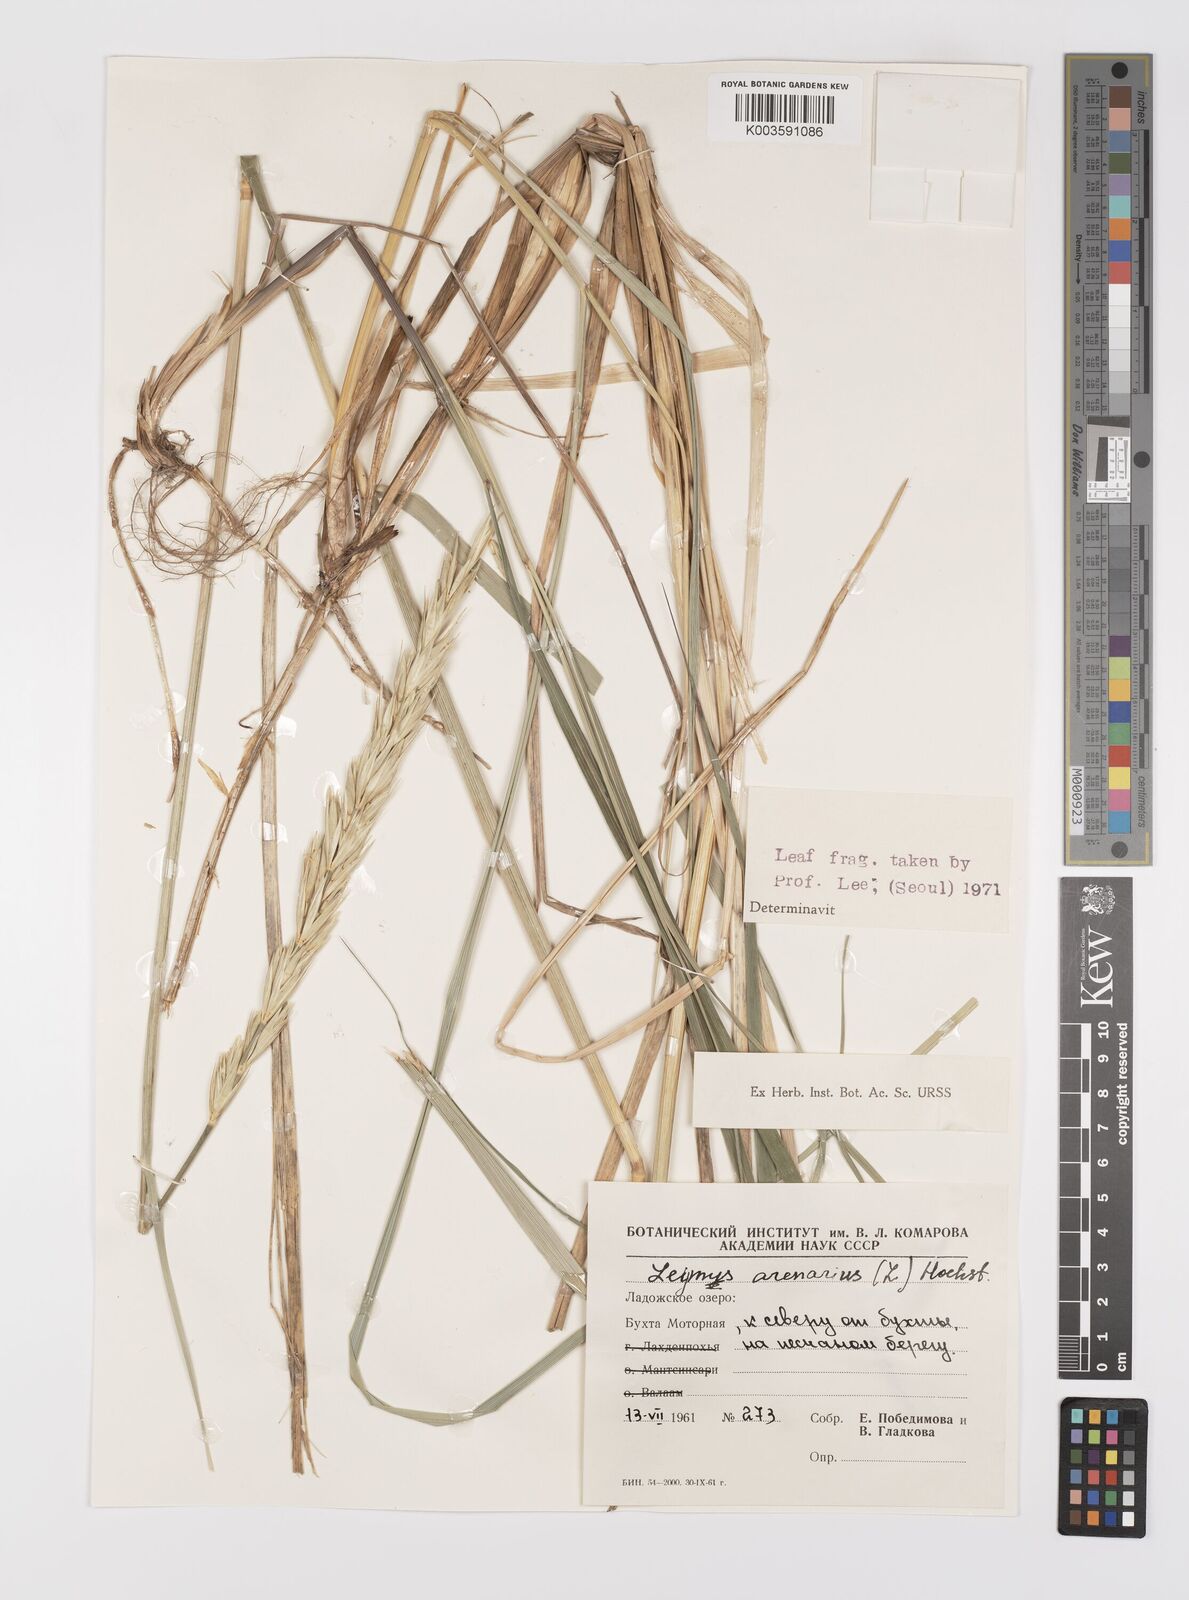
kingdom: Plantae
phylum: Tracheophyta
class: Liliopsida
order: Poales
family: Poaceae
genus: Leymus
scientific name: Leymus arenarius
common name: Lyme-grass
